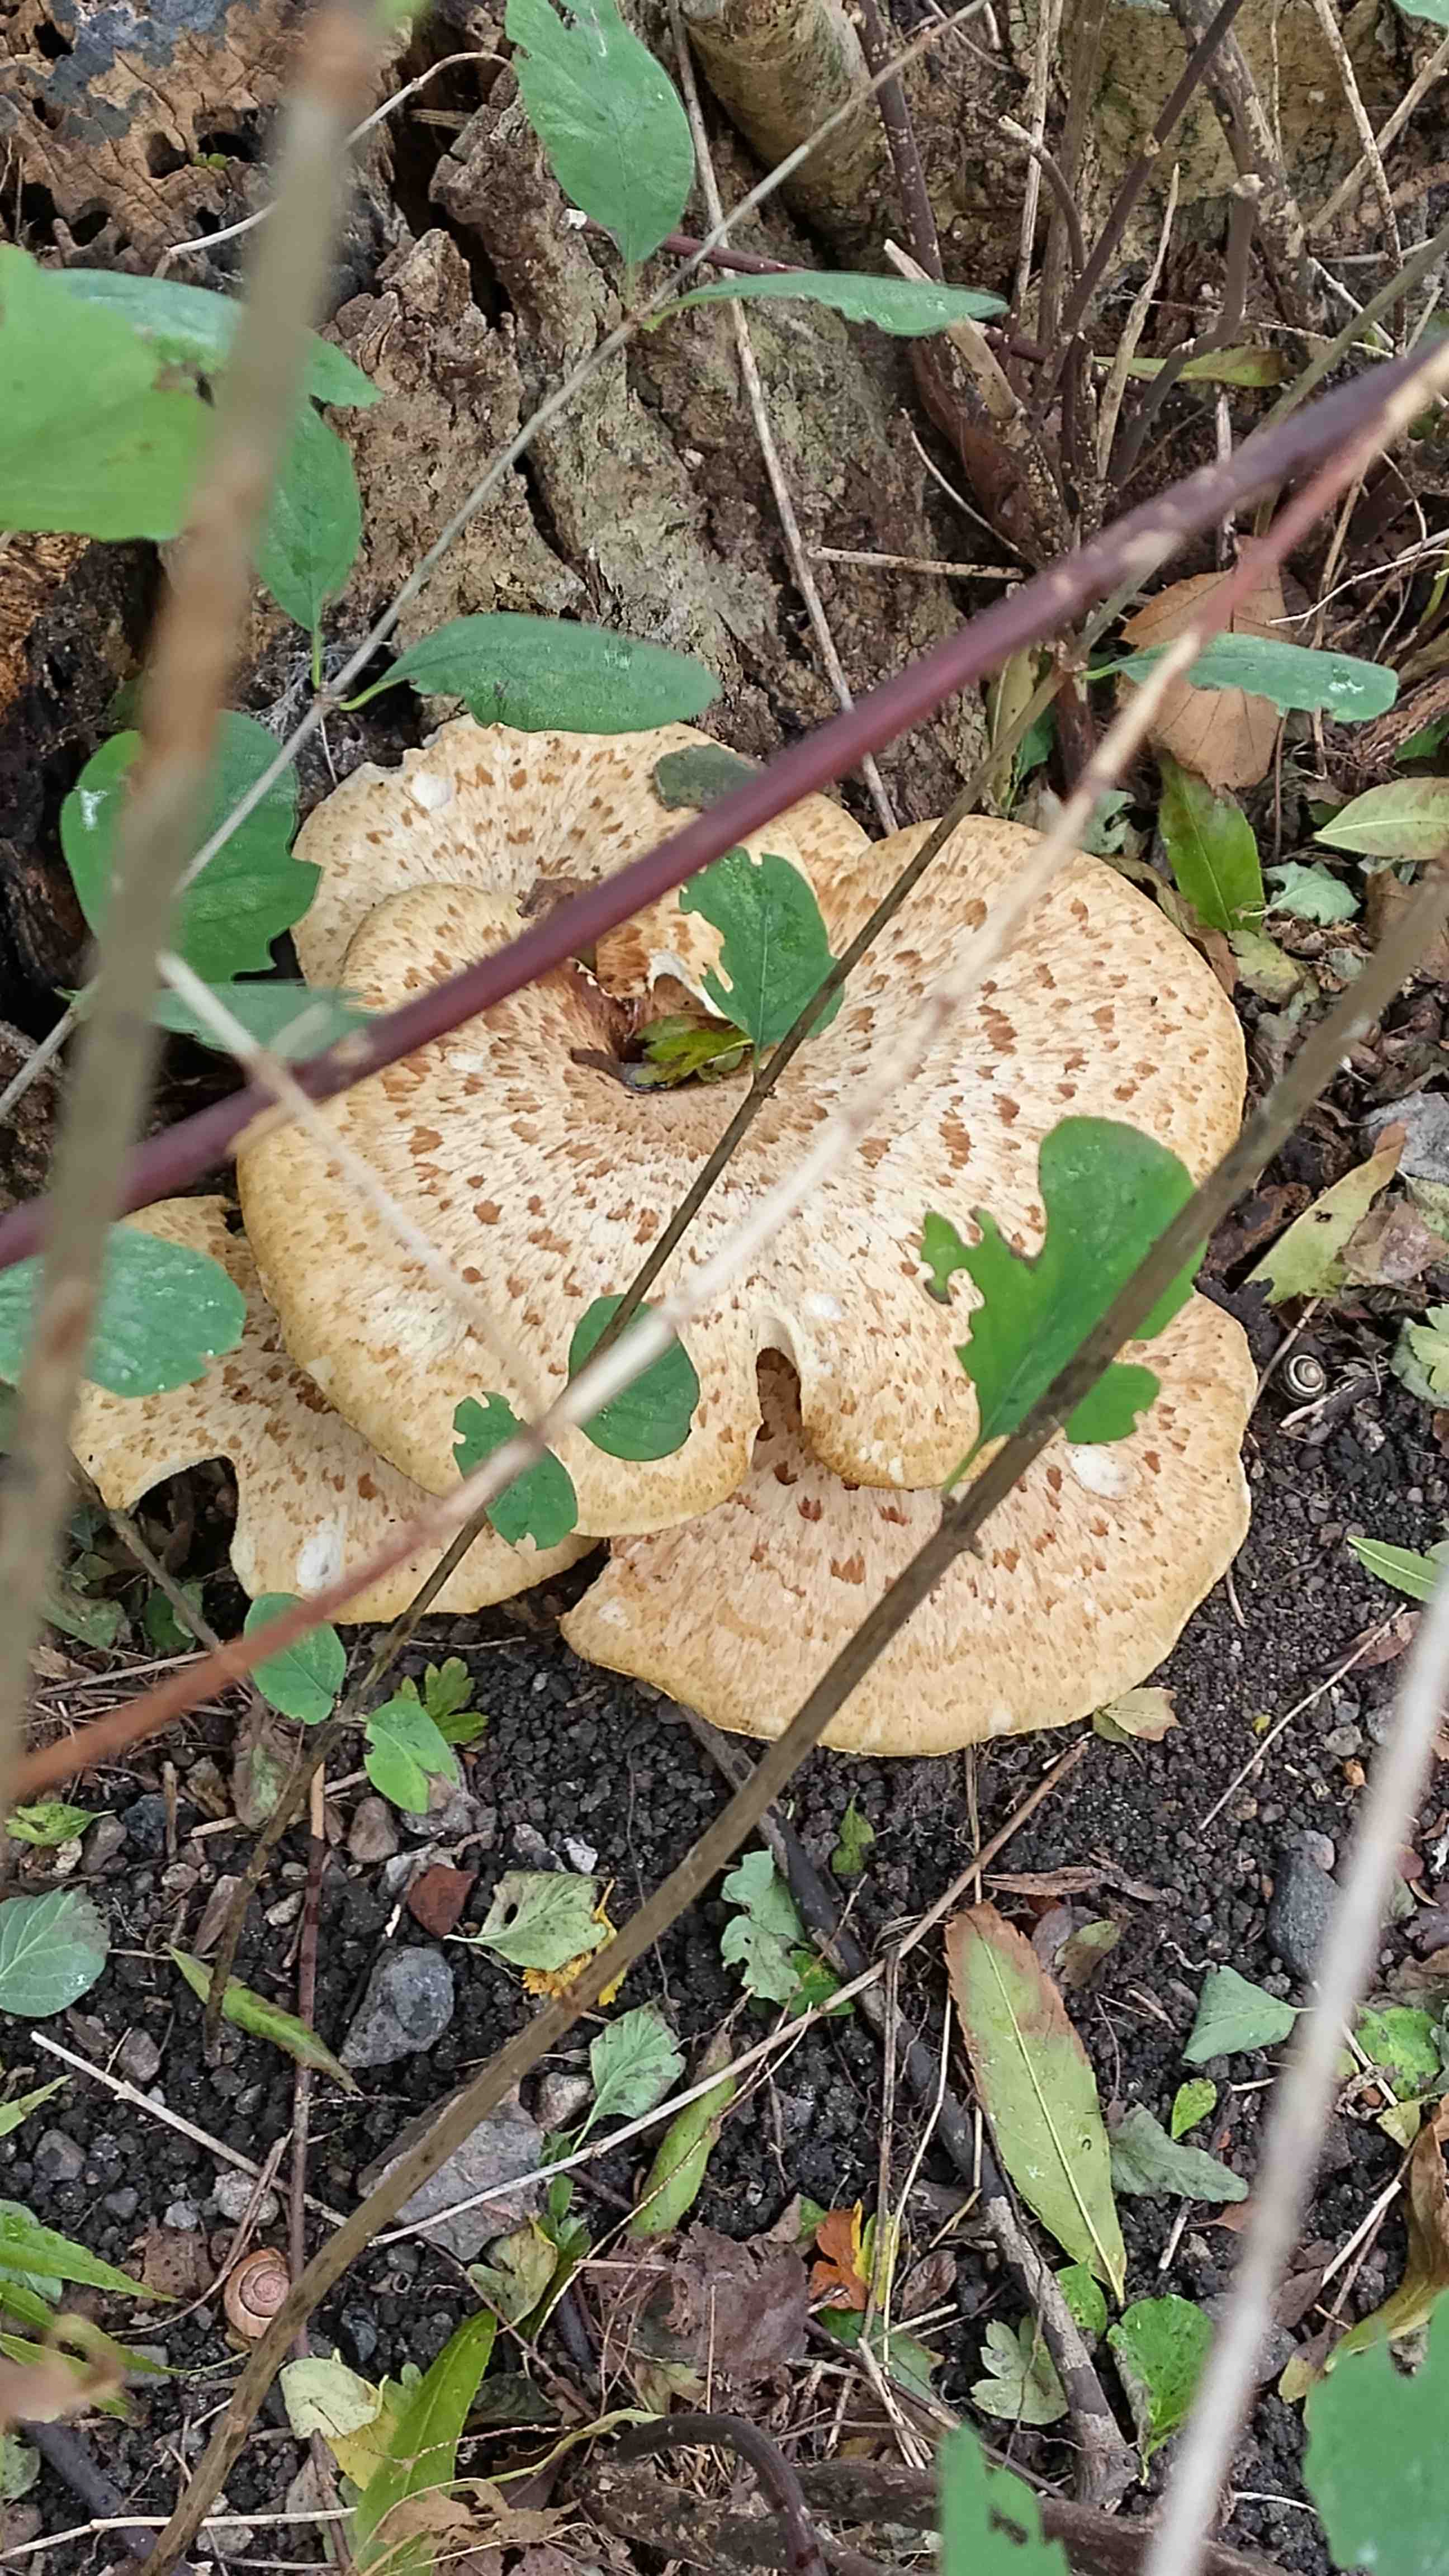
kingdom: Fungi
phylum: Basidiomycota
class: Agaricomycetes
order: Polyporales
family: Polyporaceae
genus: Cerioporus
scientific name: Cerioporus squamosus
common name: skællet stilkporesvamp
